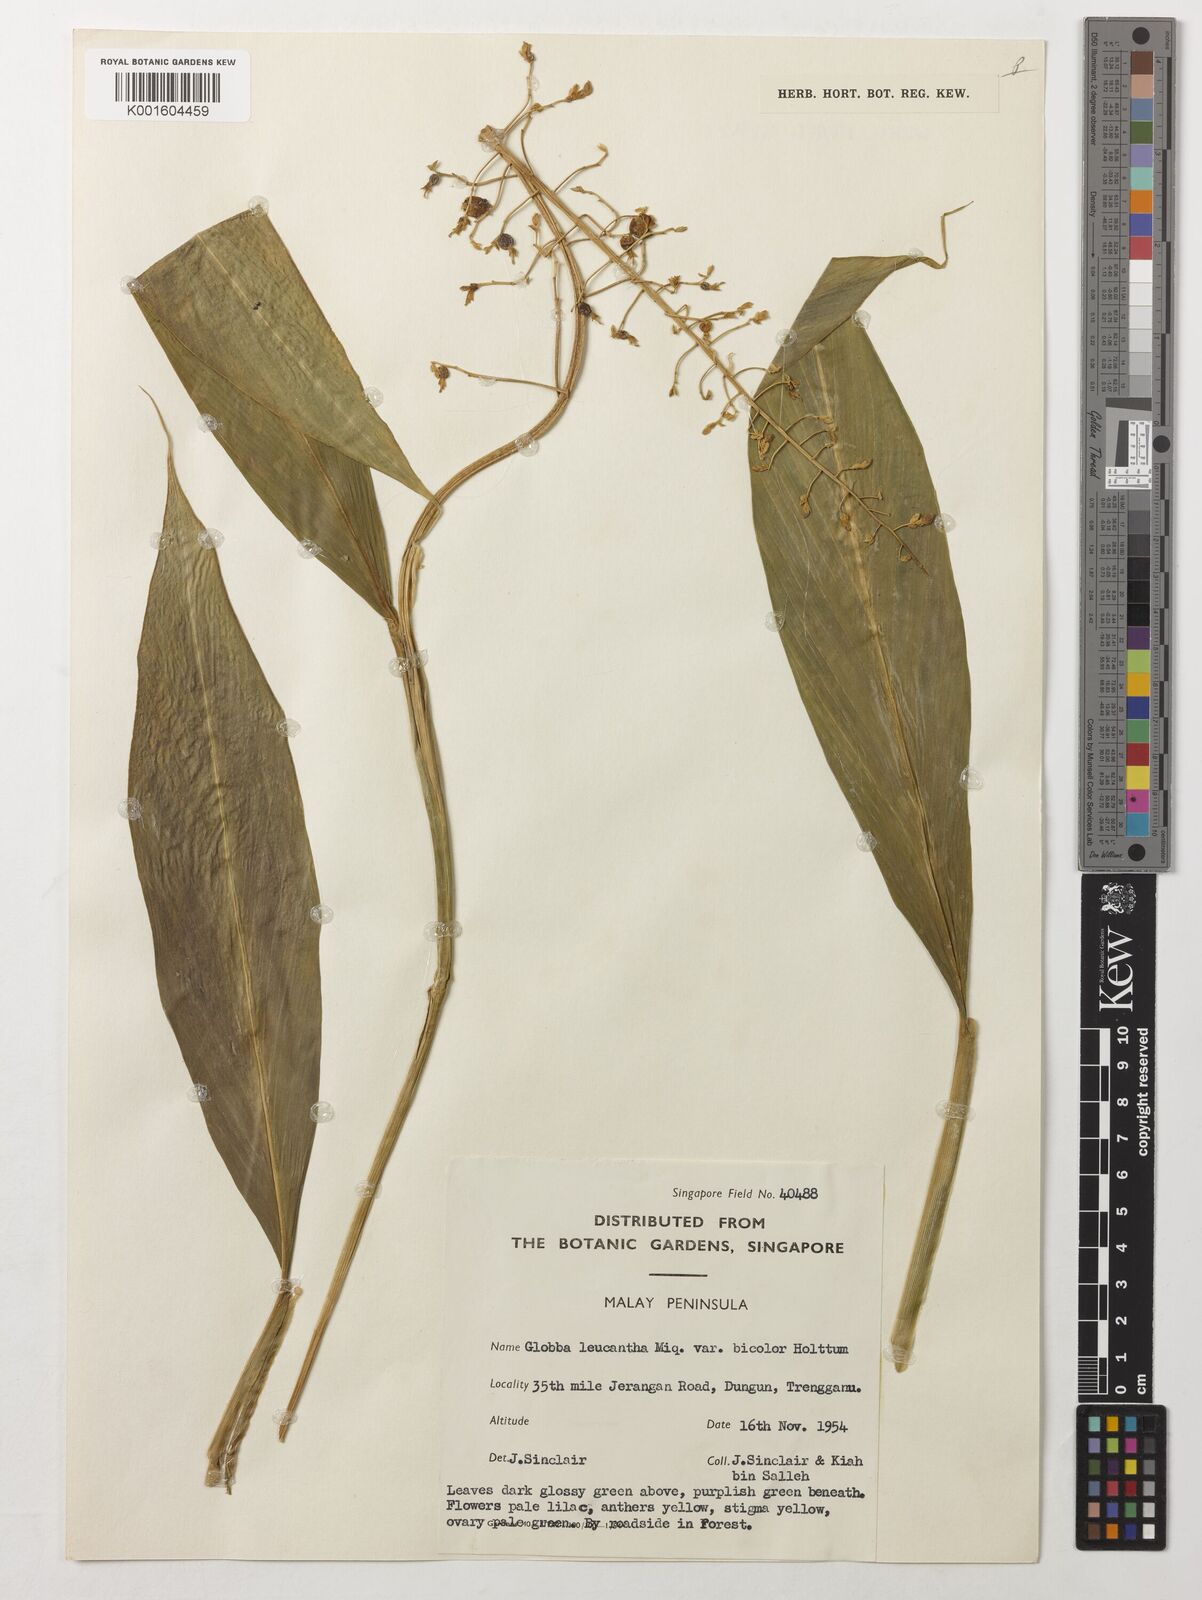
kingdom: Plantae
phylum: Tracheophyta
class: Liliopsida
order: Zingiberales
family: Zingiberaceae
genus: Globba
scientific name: Globba leucantha
